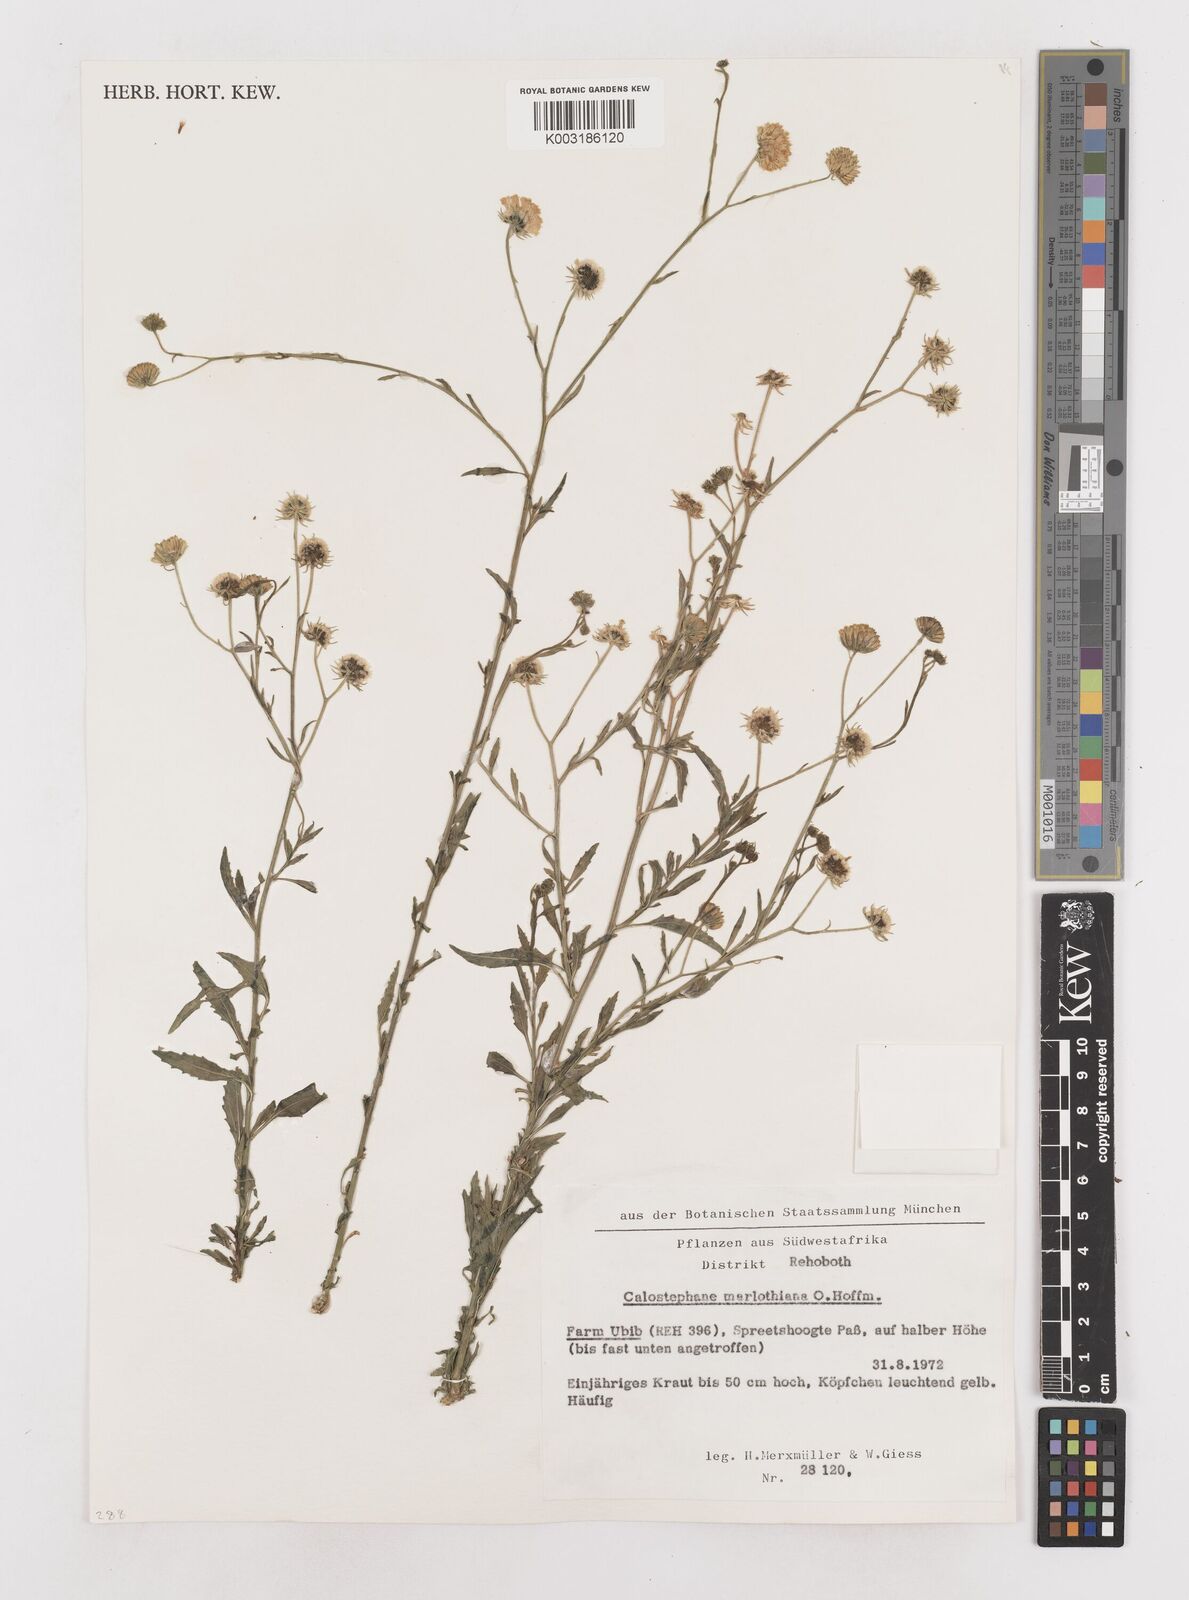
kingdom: Plantae
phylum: Tracheophyta
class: Magnoliopsida
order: Asterales
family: Asteraceae
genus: Calostephane
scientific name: Calostephane marlothiana
